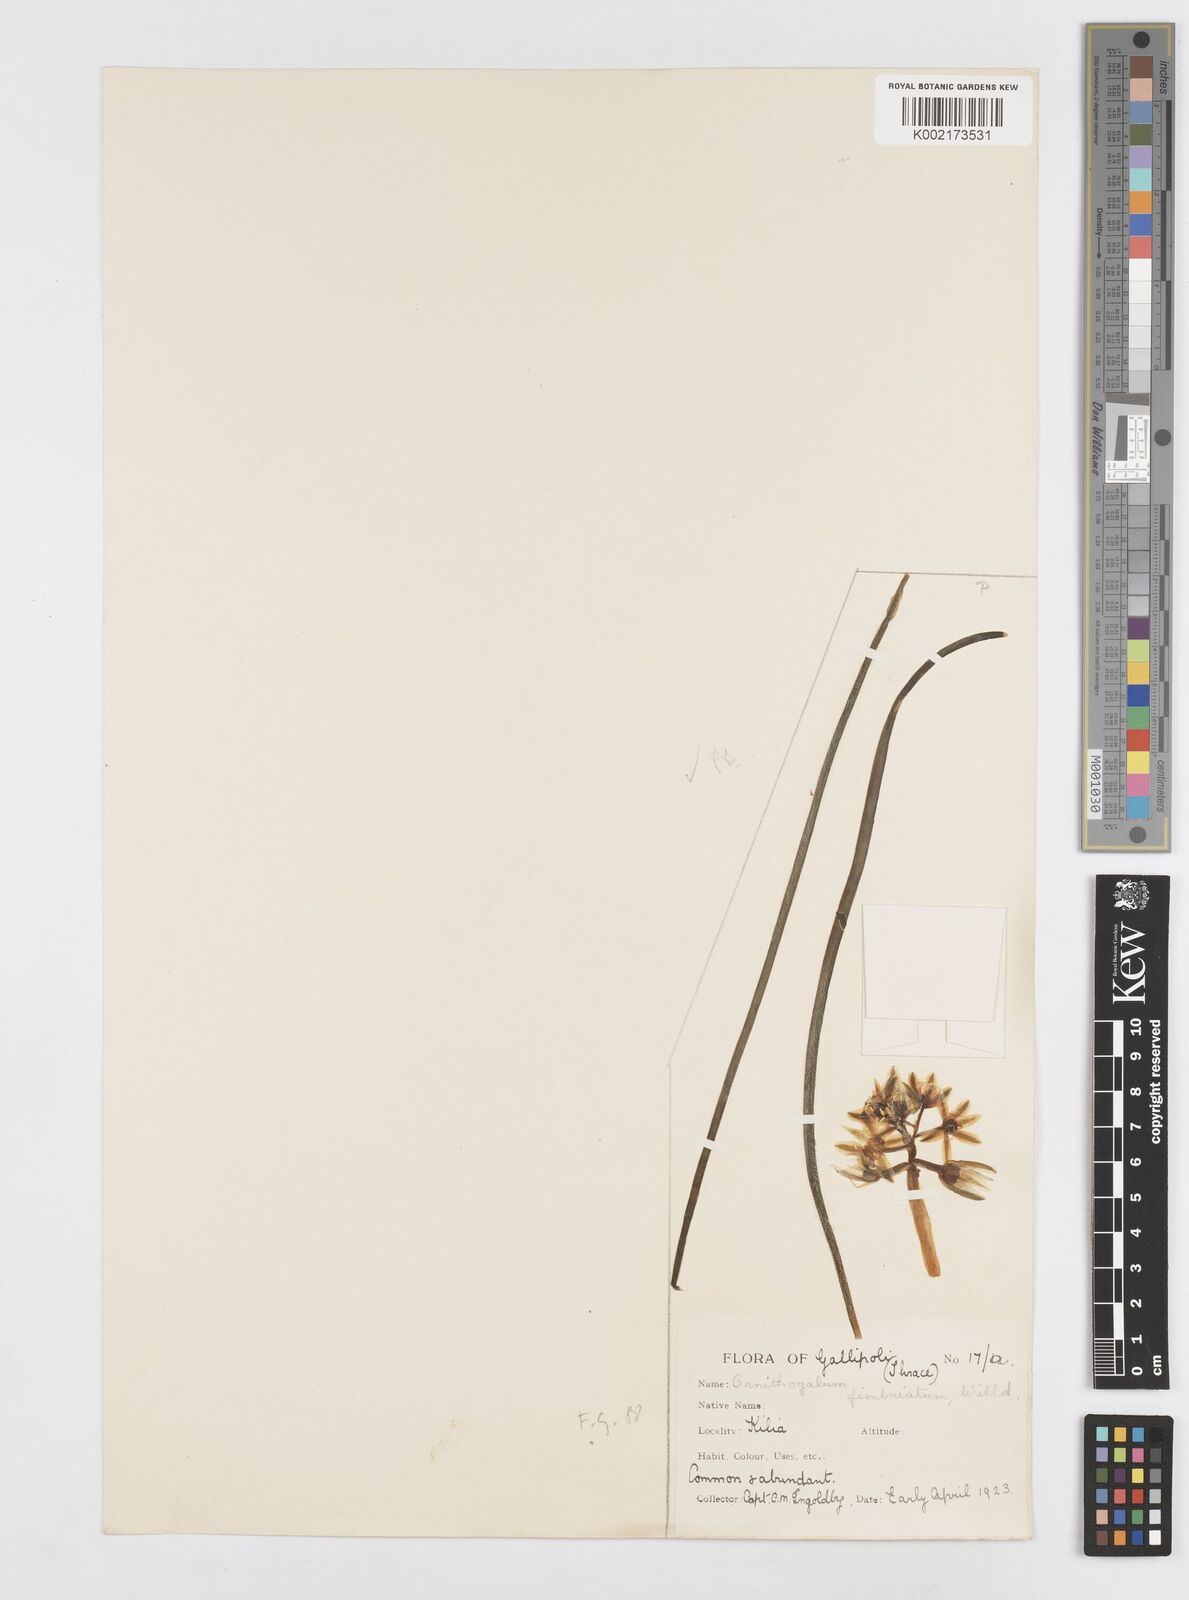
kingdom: Plantae
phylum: Tracheophyta
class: Liliopsida
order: Asparagales
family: Asparagaceae
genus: Ornithogalum
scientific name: Ornithogalum fimbriatum
